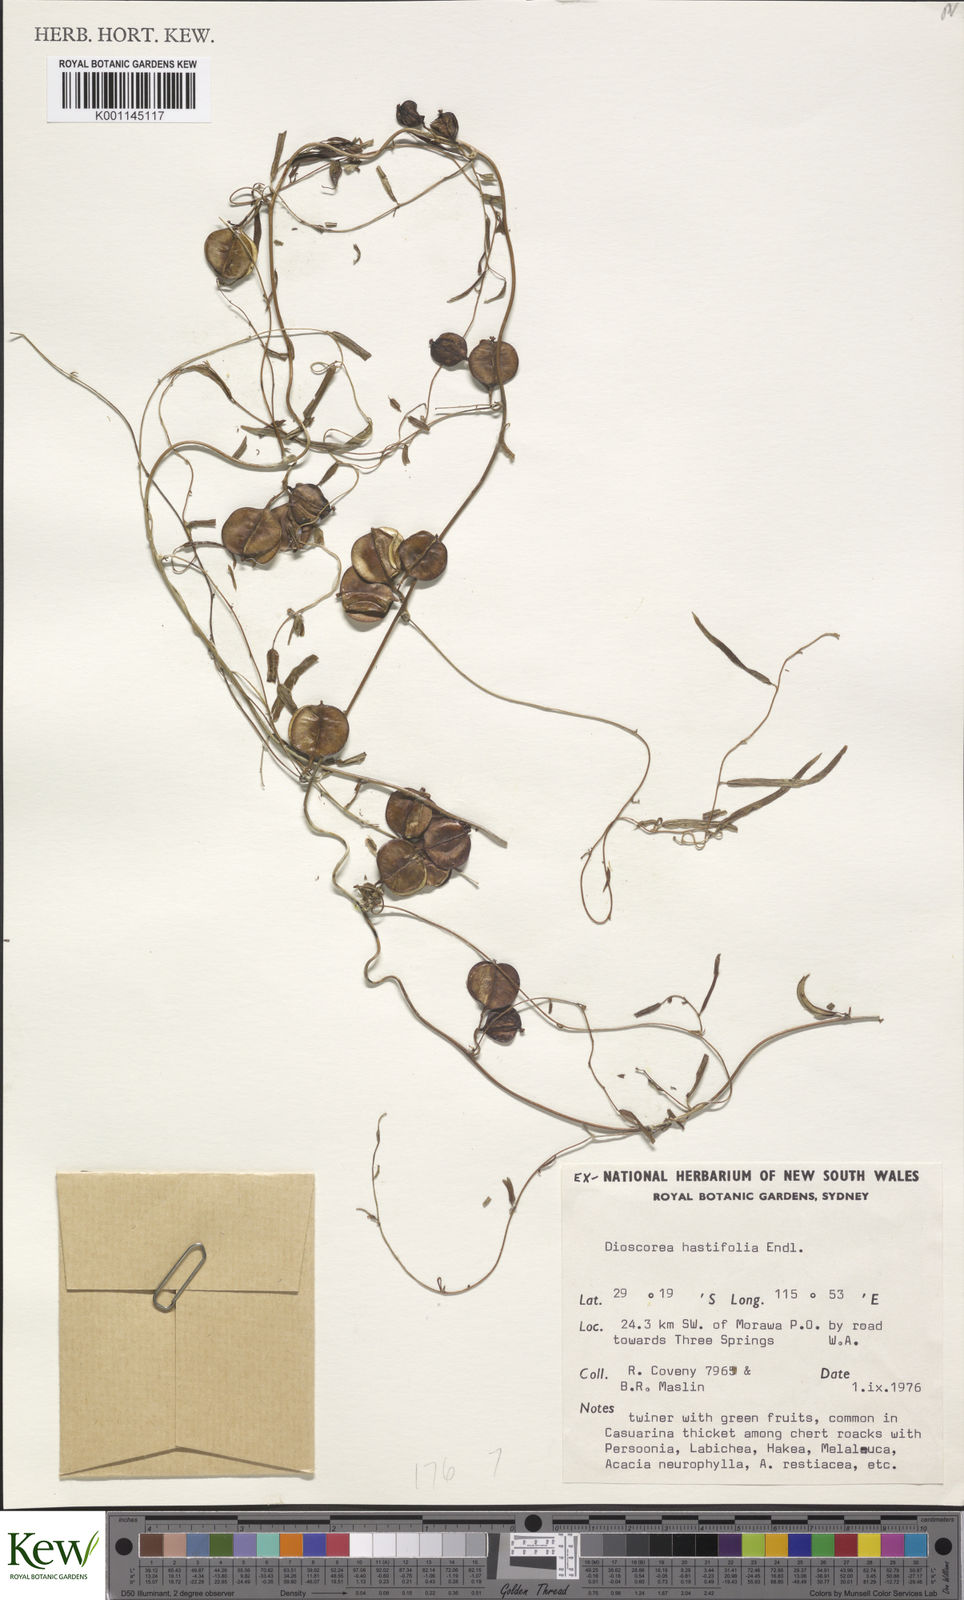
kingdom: Plantae
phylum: Tracheophyta
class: Liliopsida
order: Dioscoreales
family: Dioscoreaceae
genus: Dioscorea
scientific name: Dioscorea hastifolia
